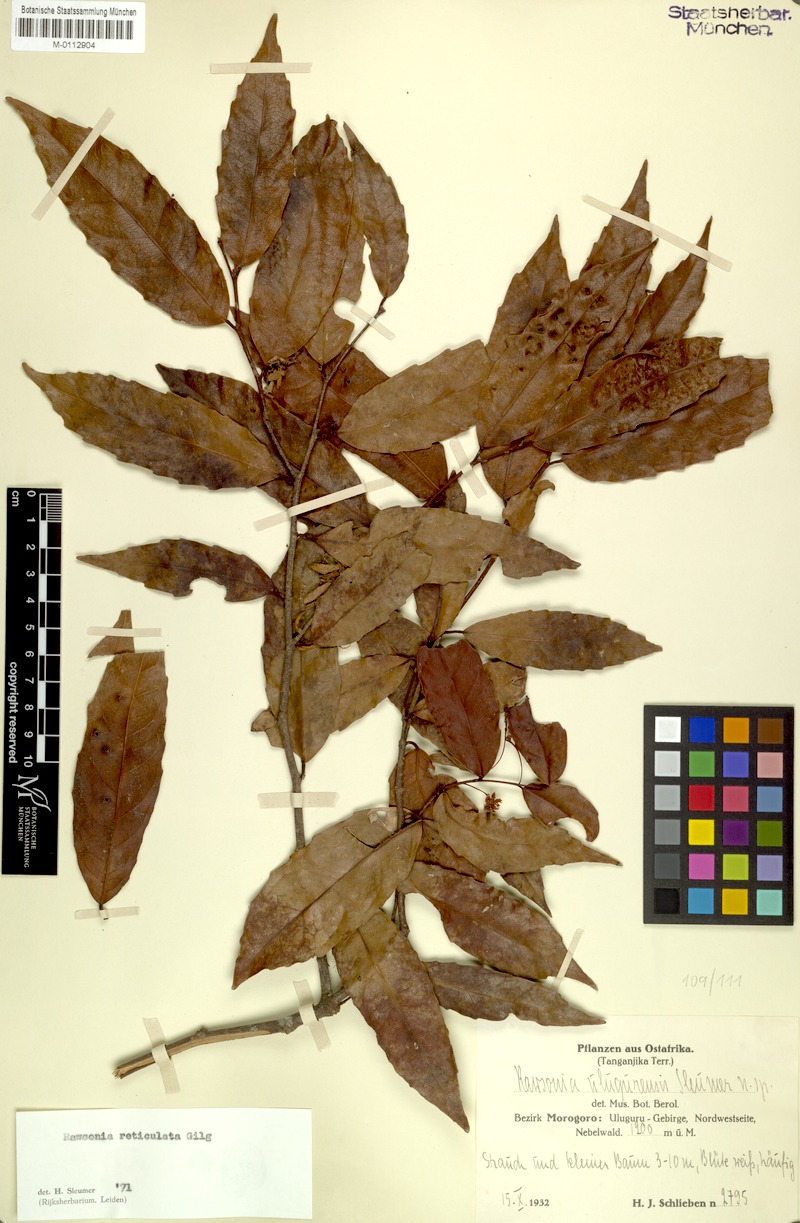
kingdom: Plantae
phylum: Tracheophyta
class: Magnoliopsida
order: Malpighiales
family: Achariaceae
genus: Rawsonia
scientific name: Rawsonia lucida
